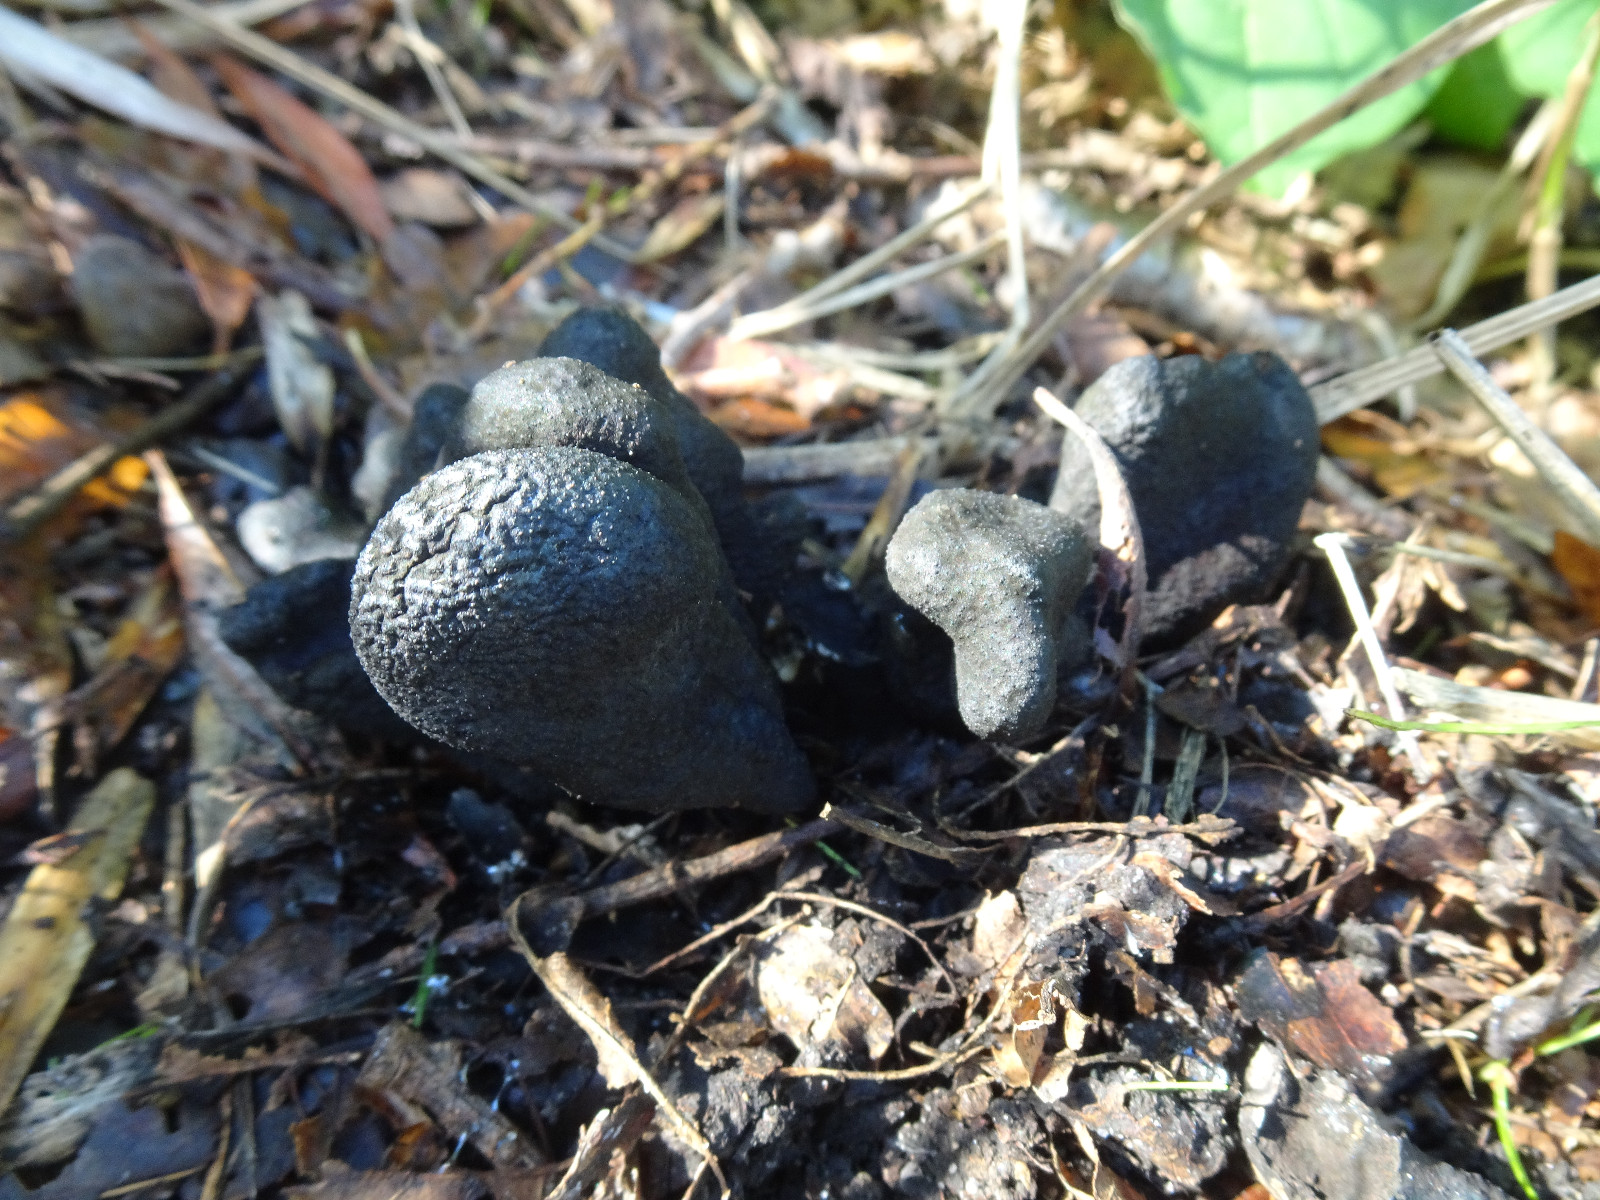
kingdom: Fungi
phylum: Ascomycota
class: Sordariomycetes
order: Xylariales
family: Xylariaceae
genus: Xylaria
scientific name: Xylaria polymorpha
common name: kølle-stødsvamp
